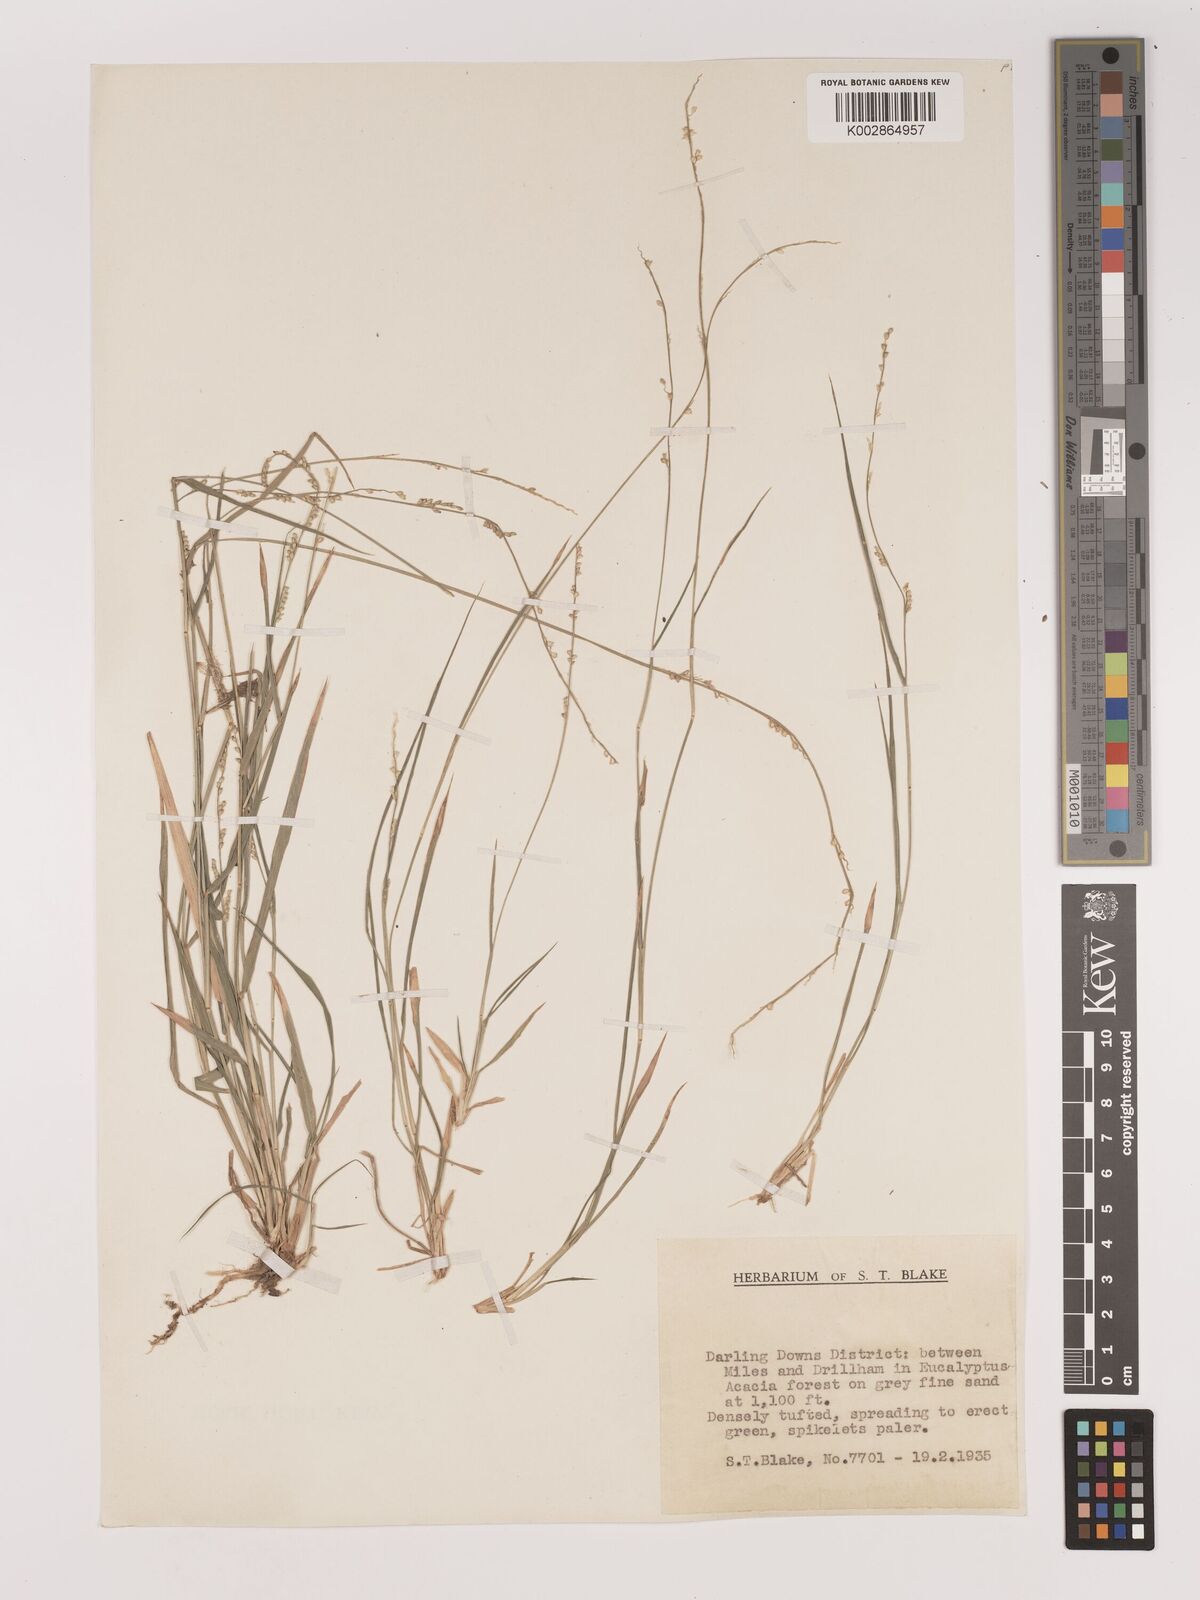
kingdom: Plantae
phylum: Tracheophyta
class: Liliopsida
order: Poales
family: Poaceae
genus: Setaria
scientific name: Setaria
